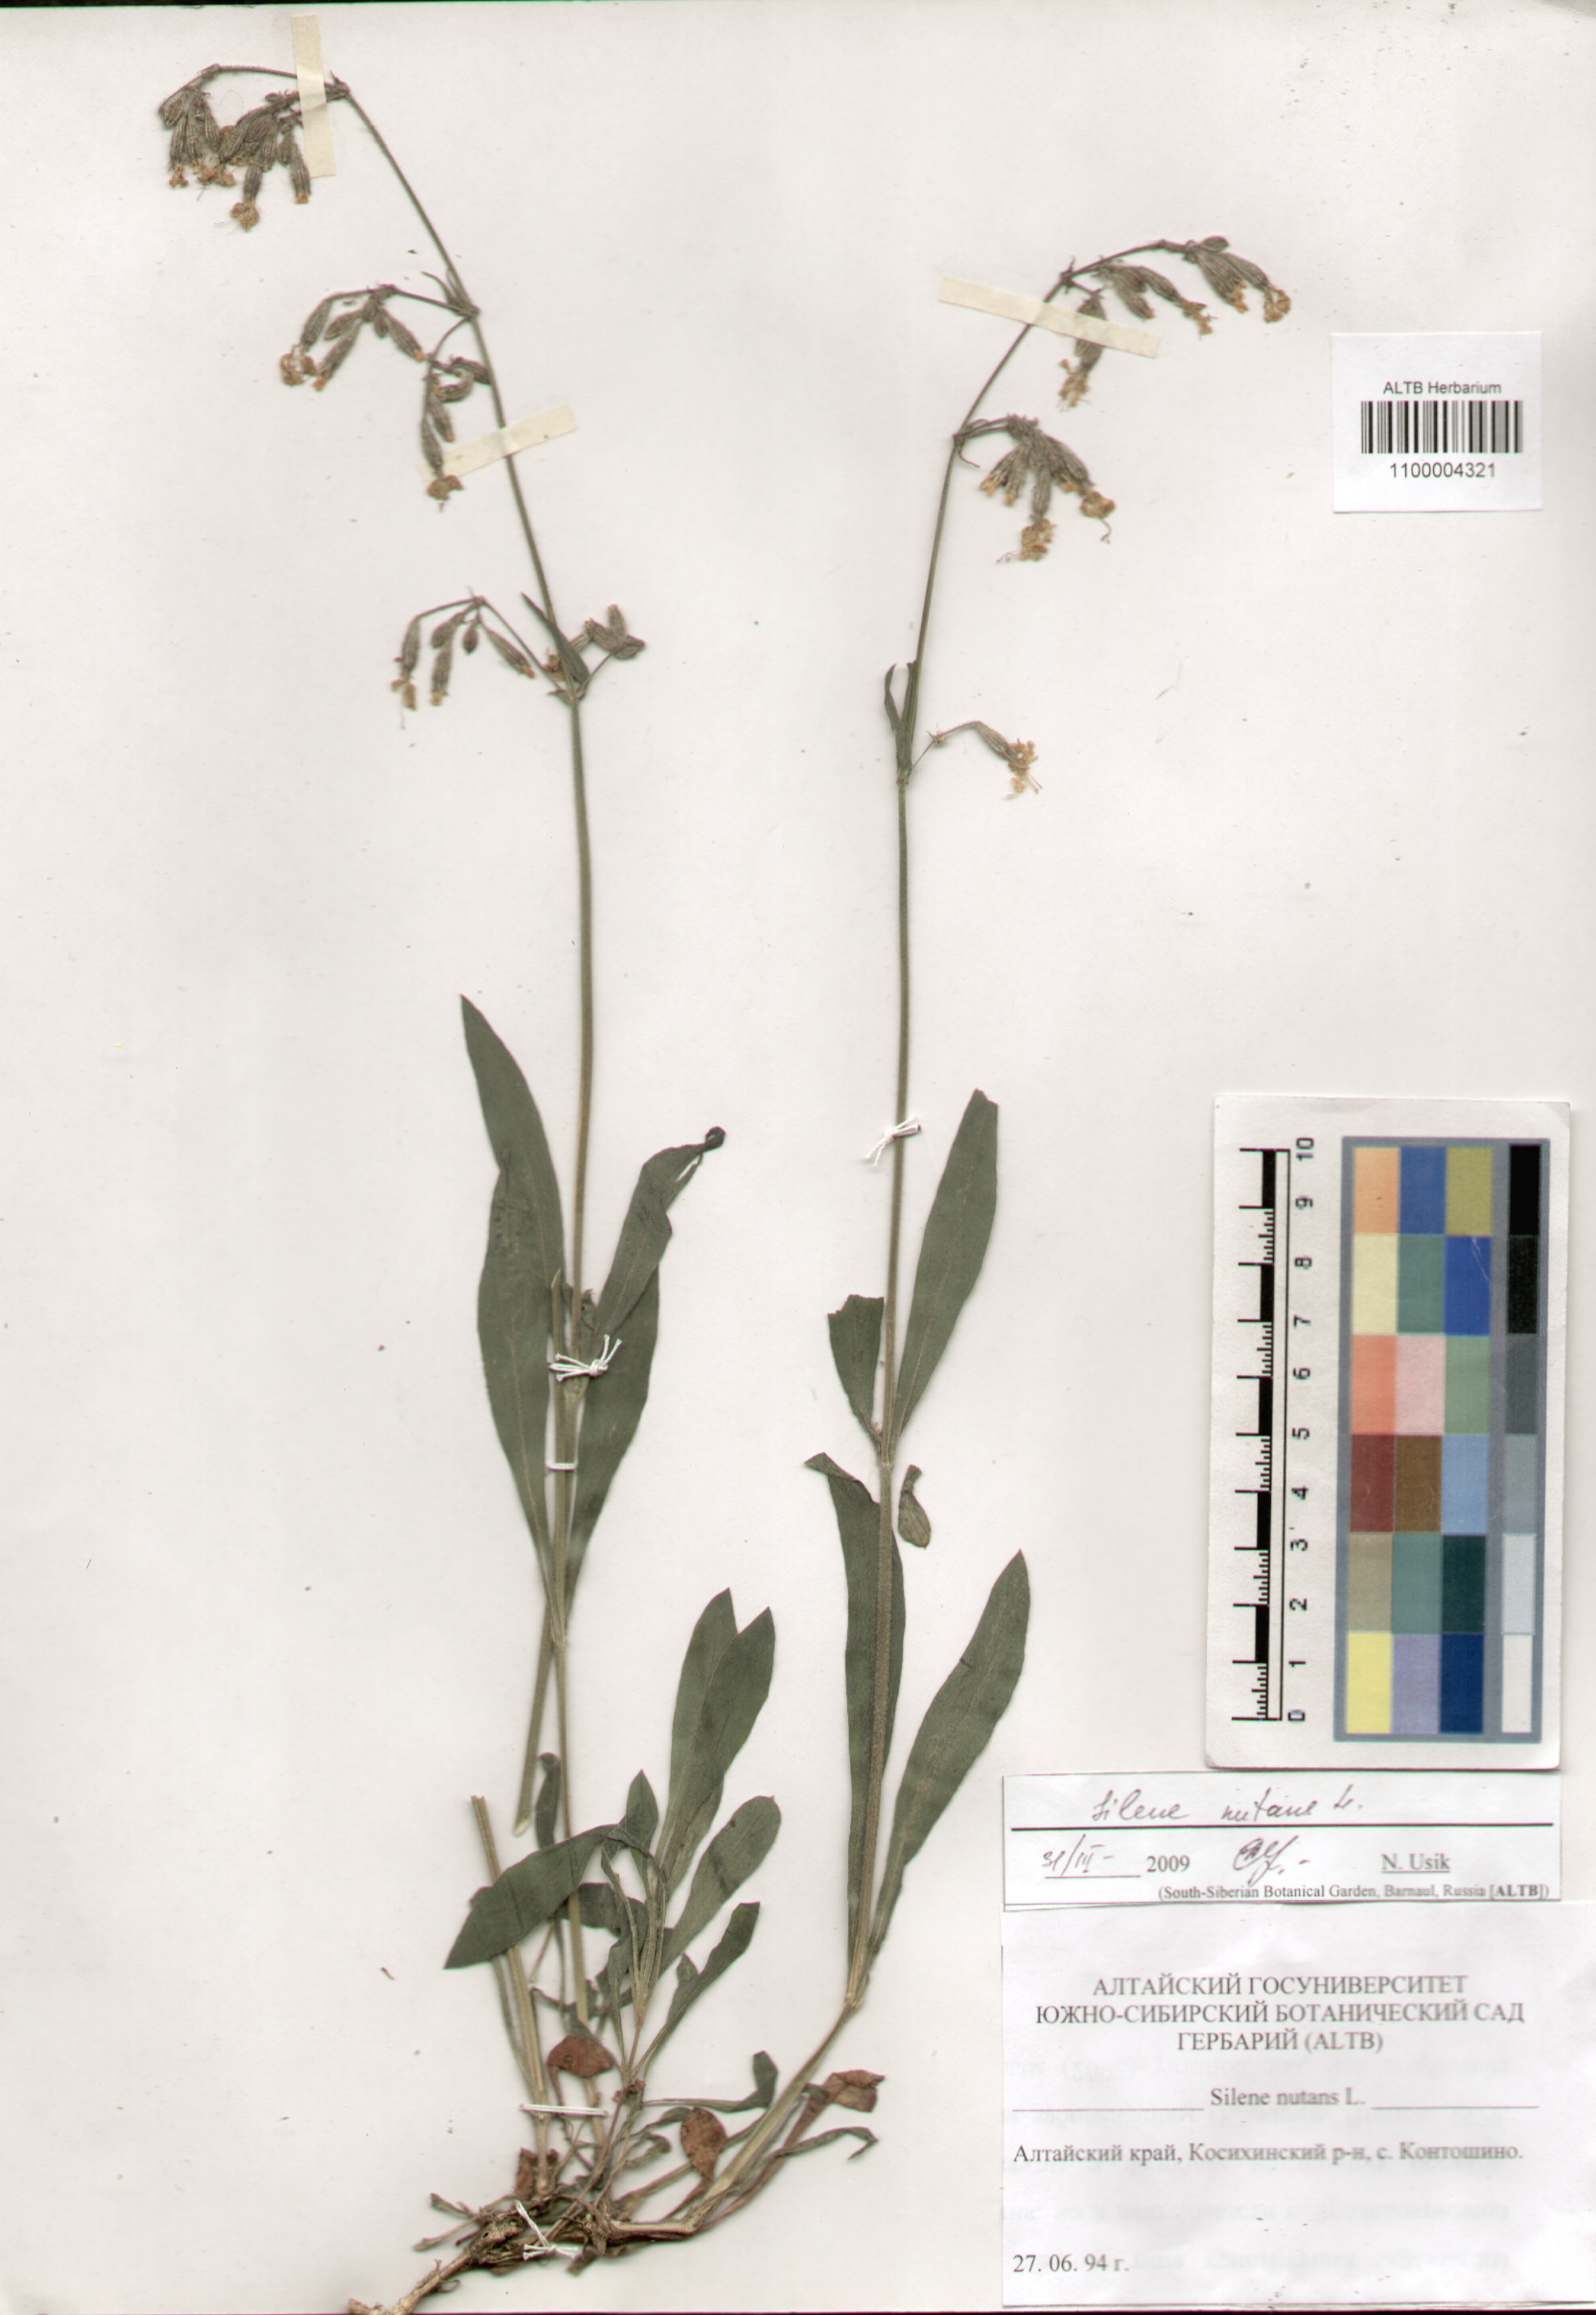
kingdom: Plantae
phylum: Tracheophyta
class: Magnoliopsida
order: Caryophyllales
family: Caryophyllaceae
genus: Silene
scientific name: Silene nutans
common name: Nottingham catchfly
